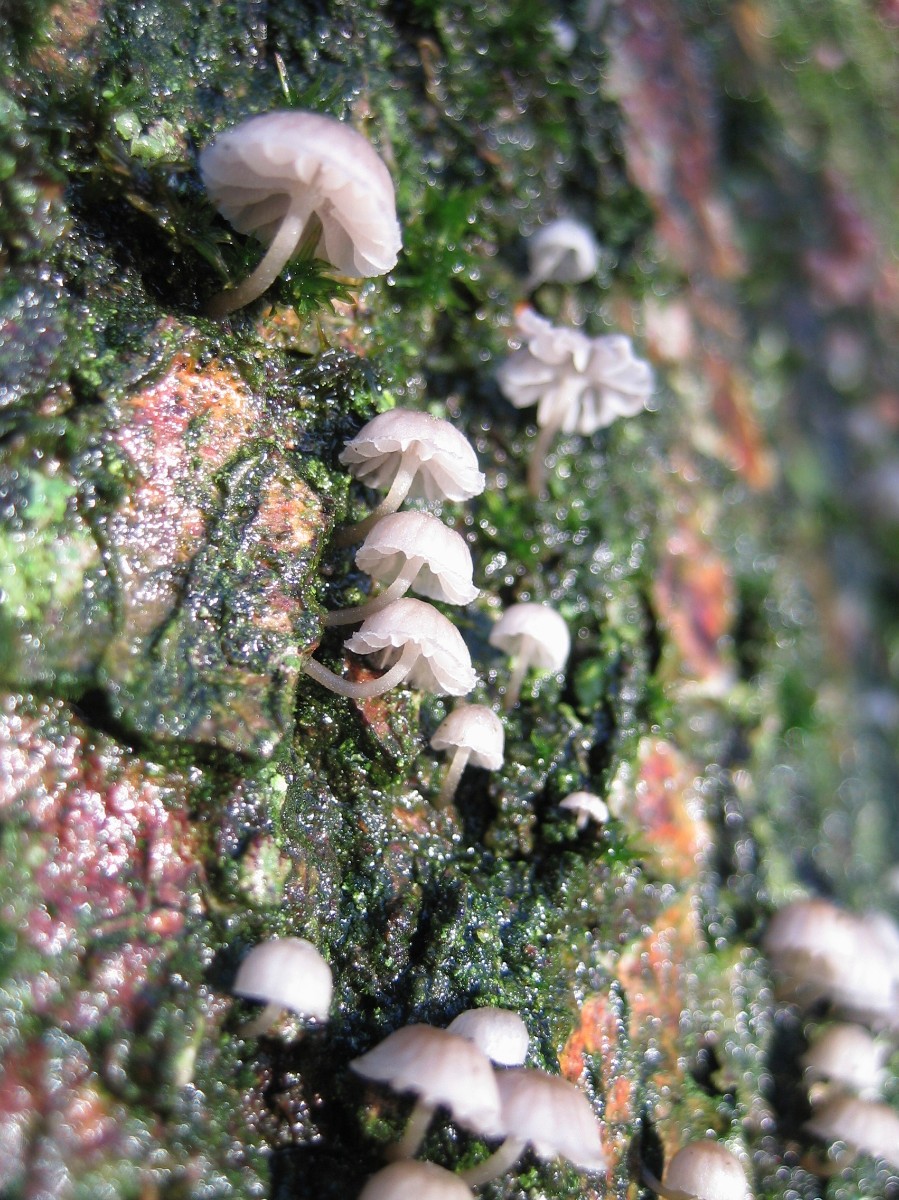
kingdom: Fungi
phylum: Basidiomycota
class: Agaricomycetes
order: Agaricales
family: Mycenaceae
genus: Mycena
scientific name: Mycena
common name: huesvamp
